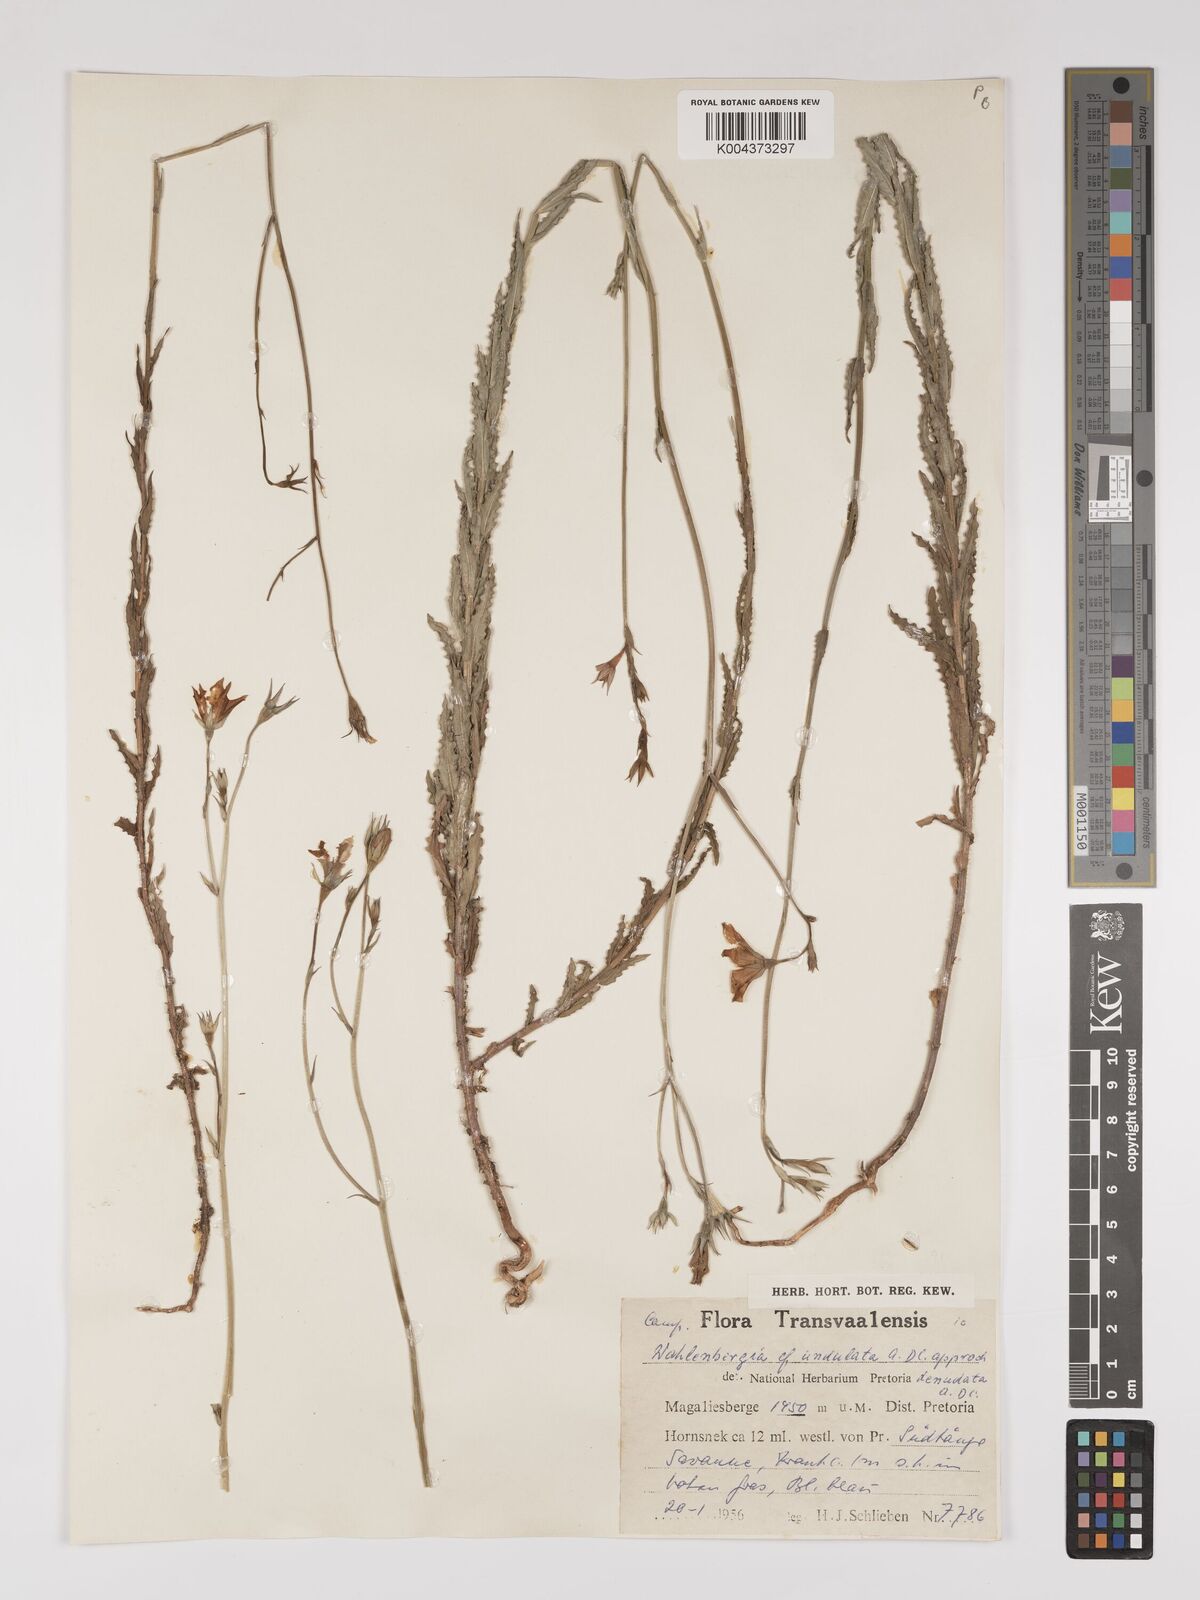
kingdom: Plantae
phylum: Tracheophyta
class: Magnoliopsida
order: Asterales
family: Campanulaceae
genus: Wahlenbergia
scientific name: Wahlenbergia undulata
